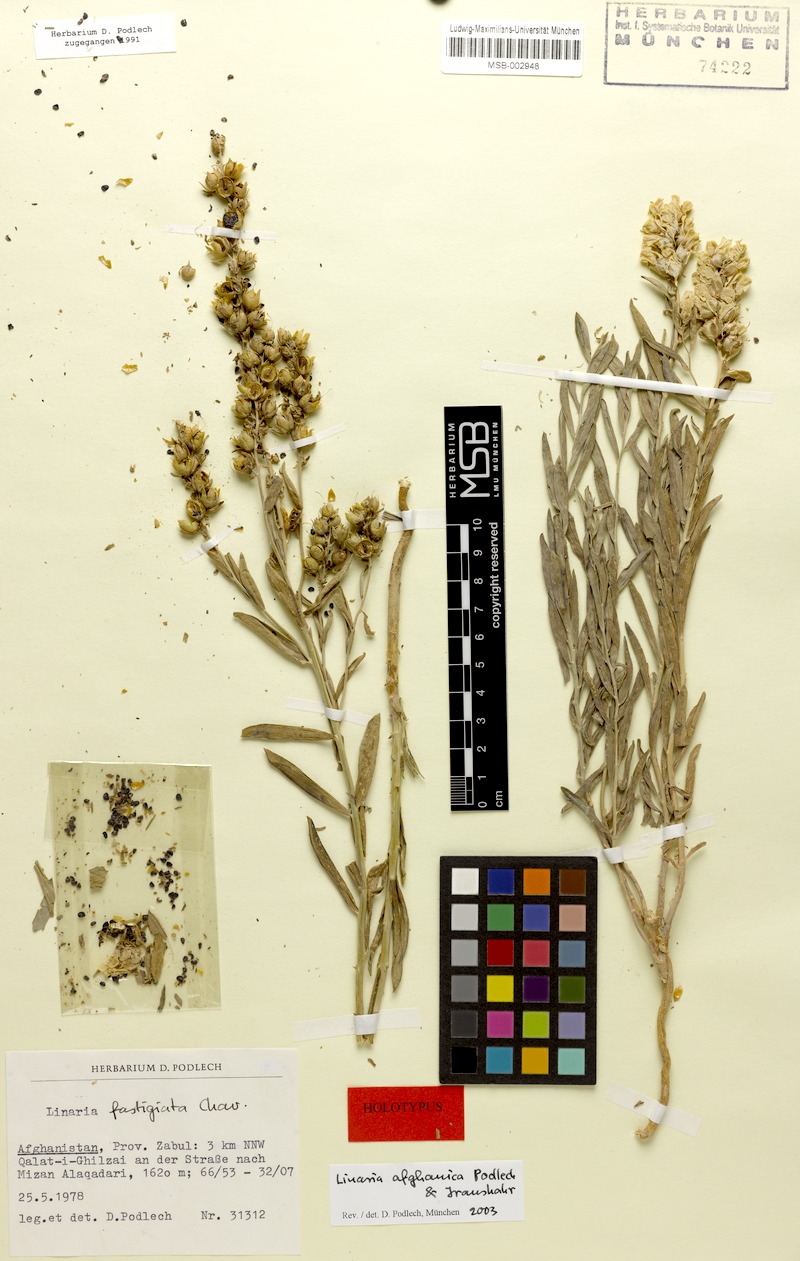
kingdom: Plantae
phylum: Tracheophyta
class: Magnoliopsida
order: Lamiales
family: Plantaginaceae
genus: Linaria
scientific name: Linaria afghanica
